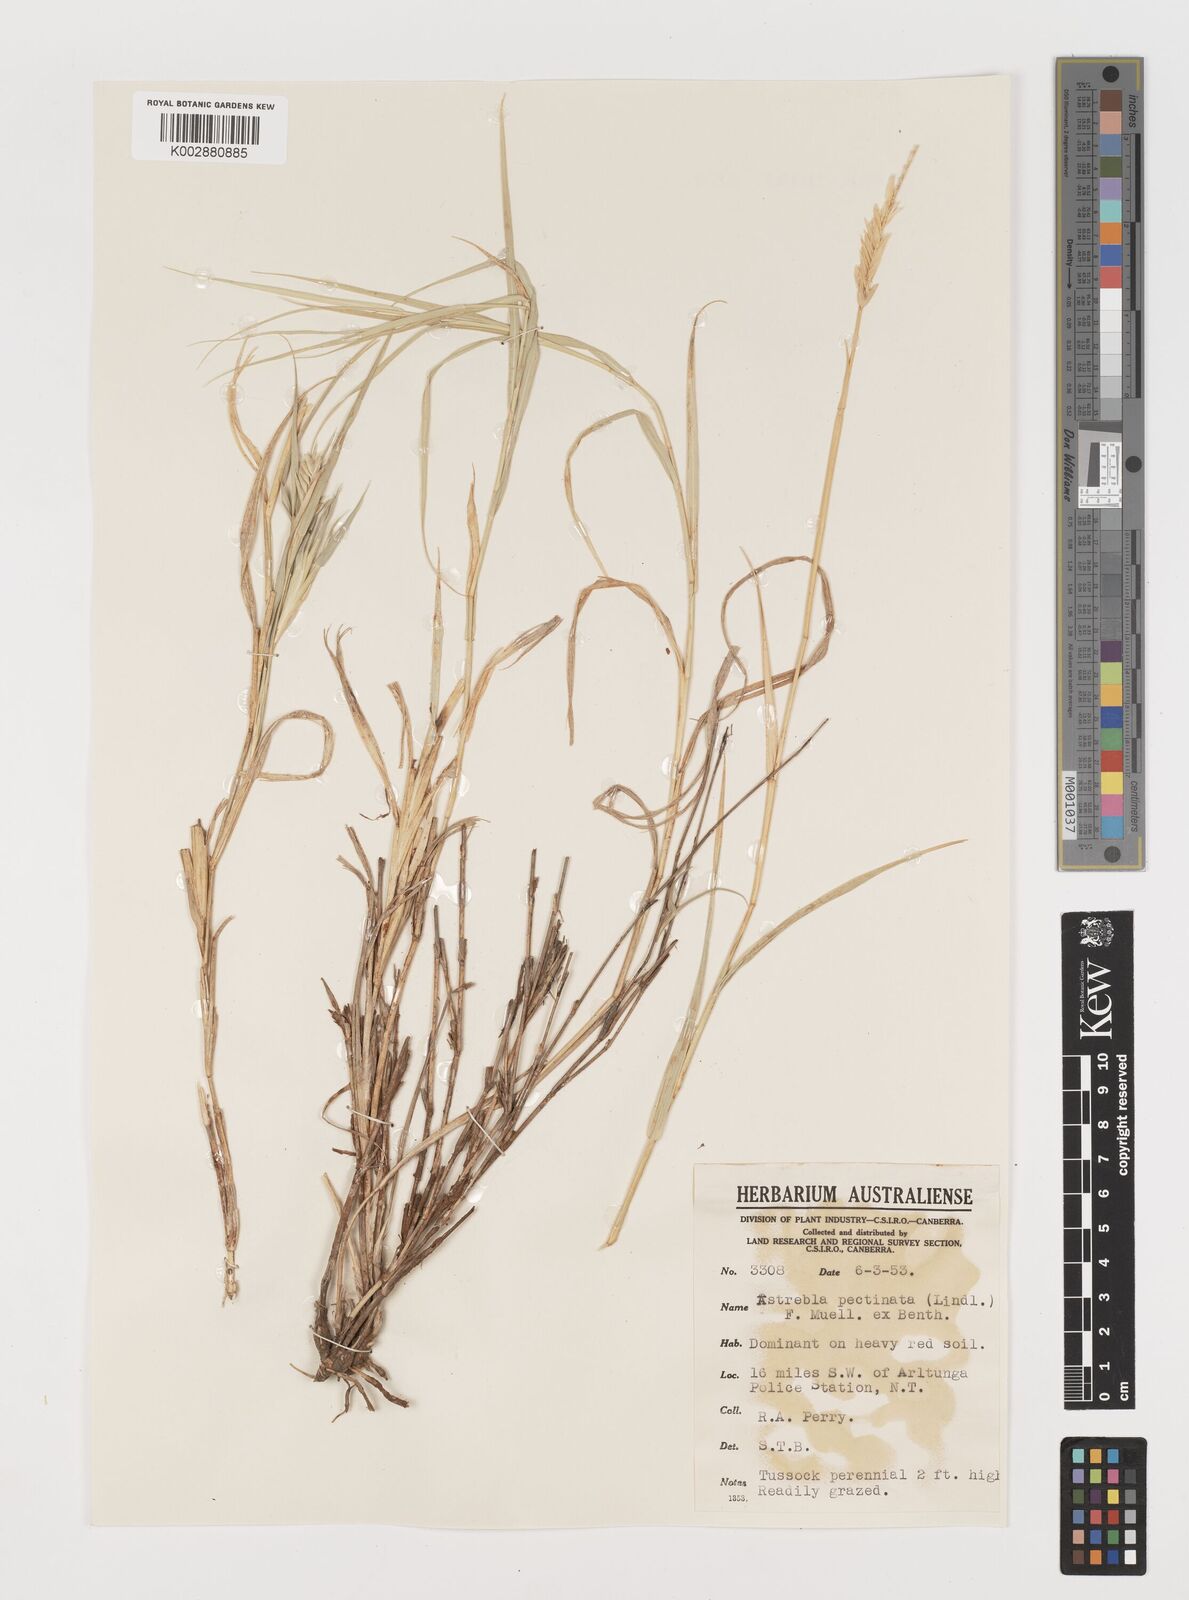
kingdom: Plantae
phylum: Tracheophyta
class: Liliopsida
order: Poales
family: Poaceae
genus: Astrebla
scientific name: Astrebla pectinata
